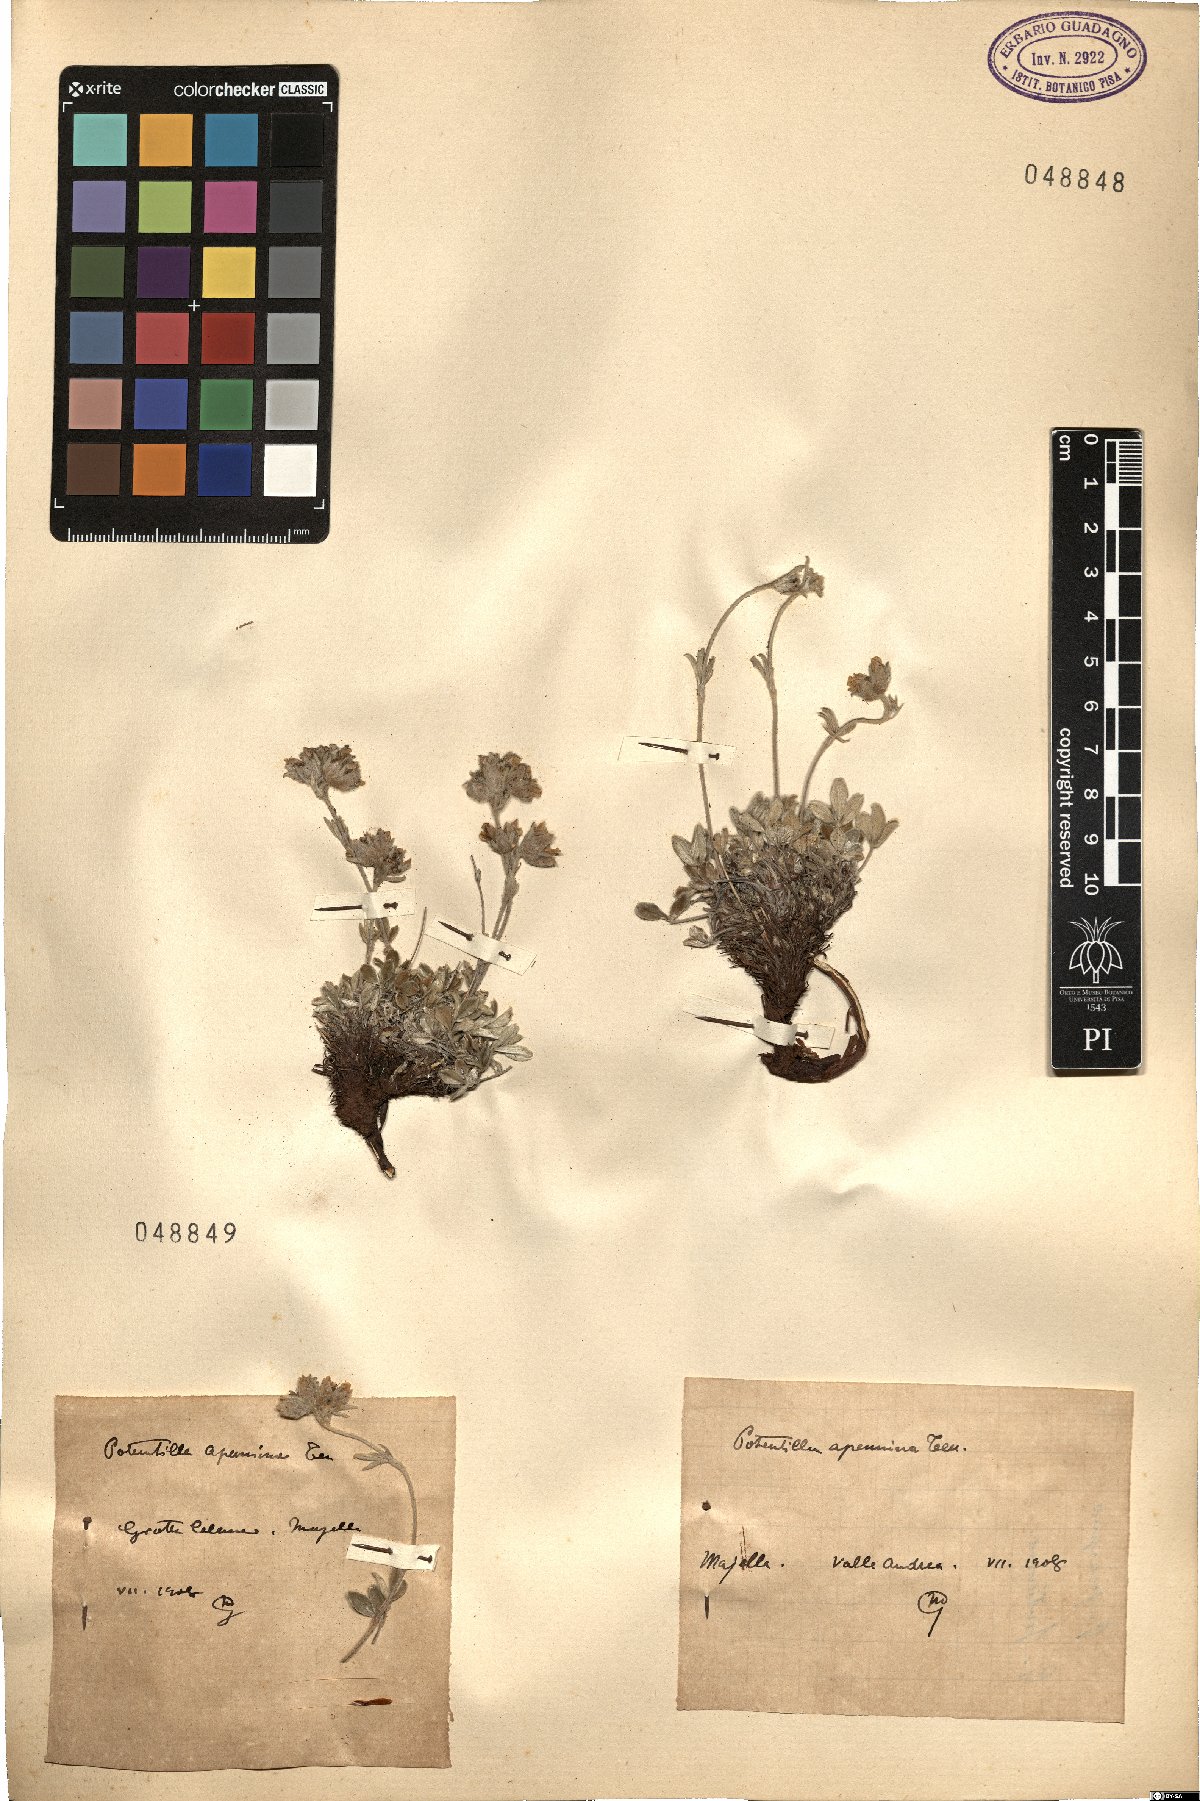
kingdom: Plantae
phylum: Tracheophyta
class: Magnoliopsida
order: Rosales
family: Rosaceae
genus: Potentilla
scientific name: Potentilla apennina
